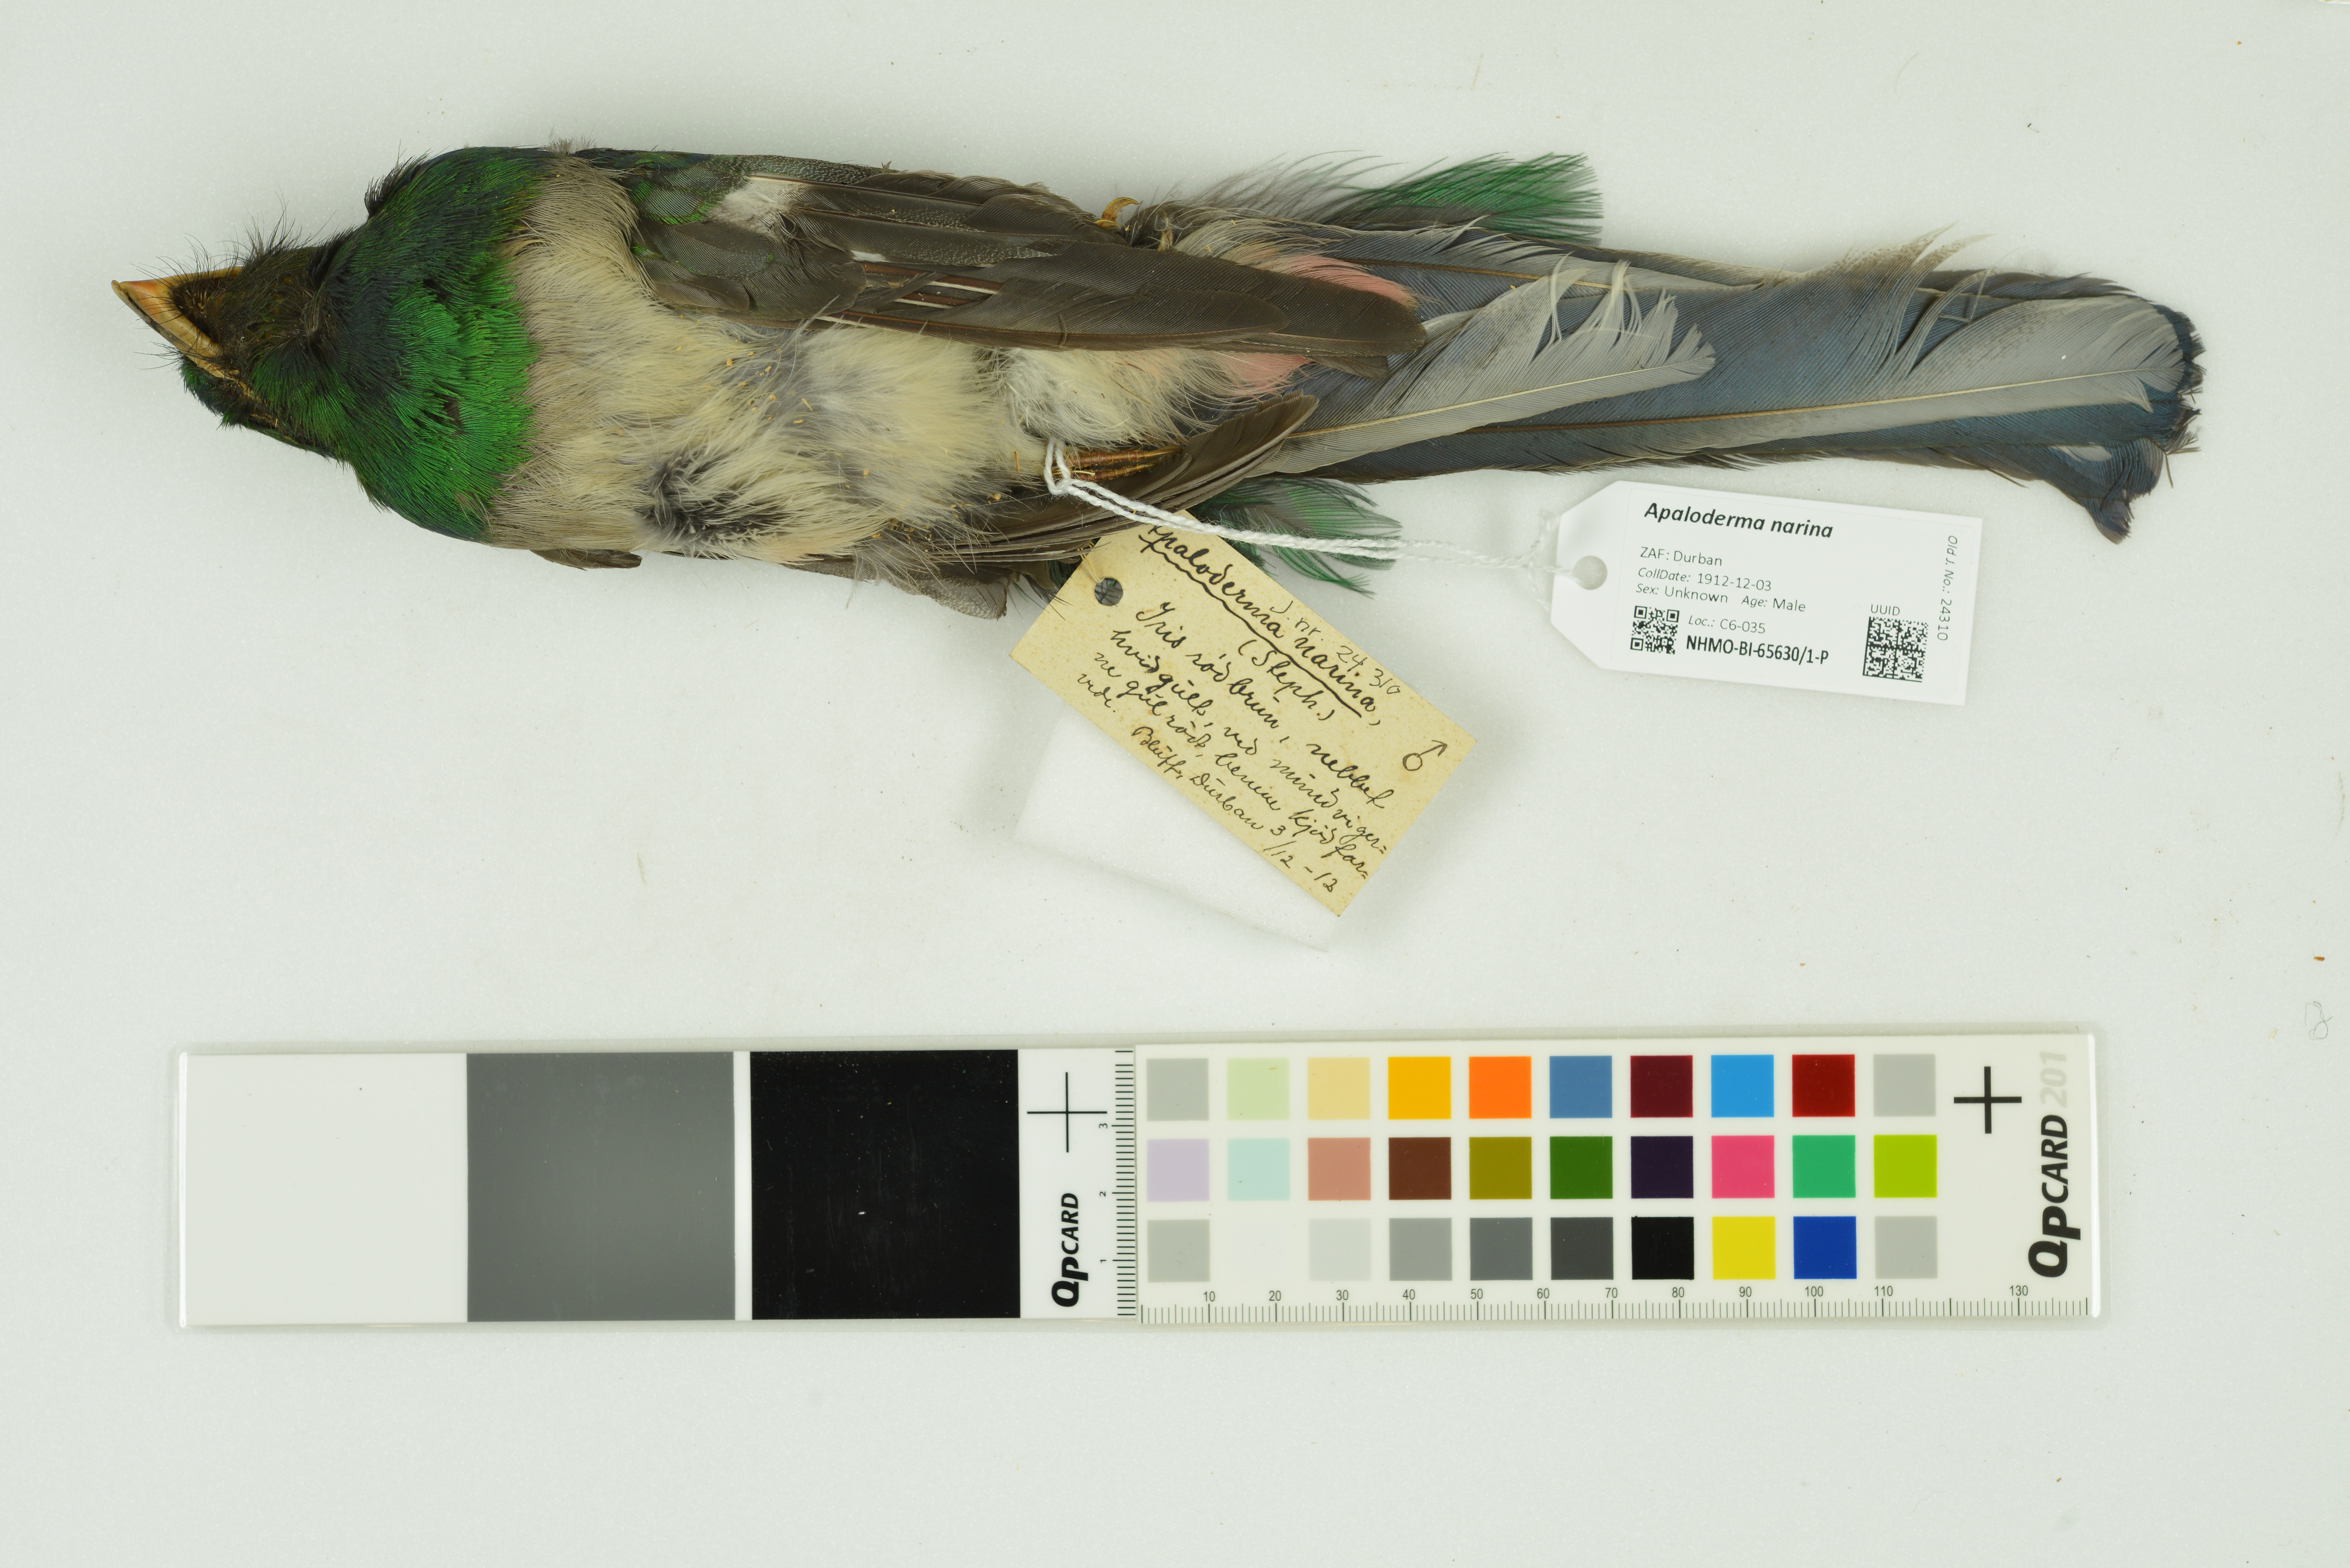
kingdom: Animalia
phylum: Chordata
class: Aves
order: Trogoniformes
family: Trogonidae
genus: Apaloderma
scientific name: Apaloderma narina
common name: Narina trogon
